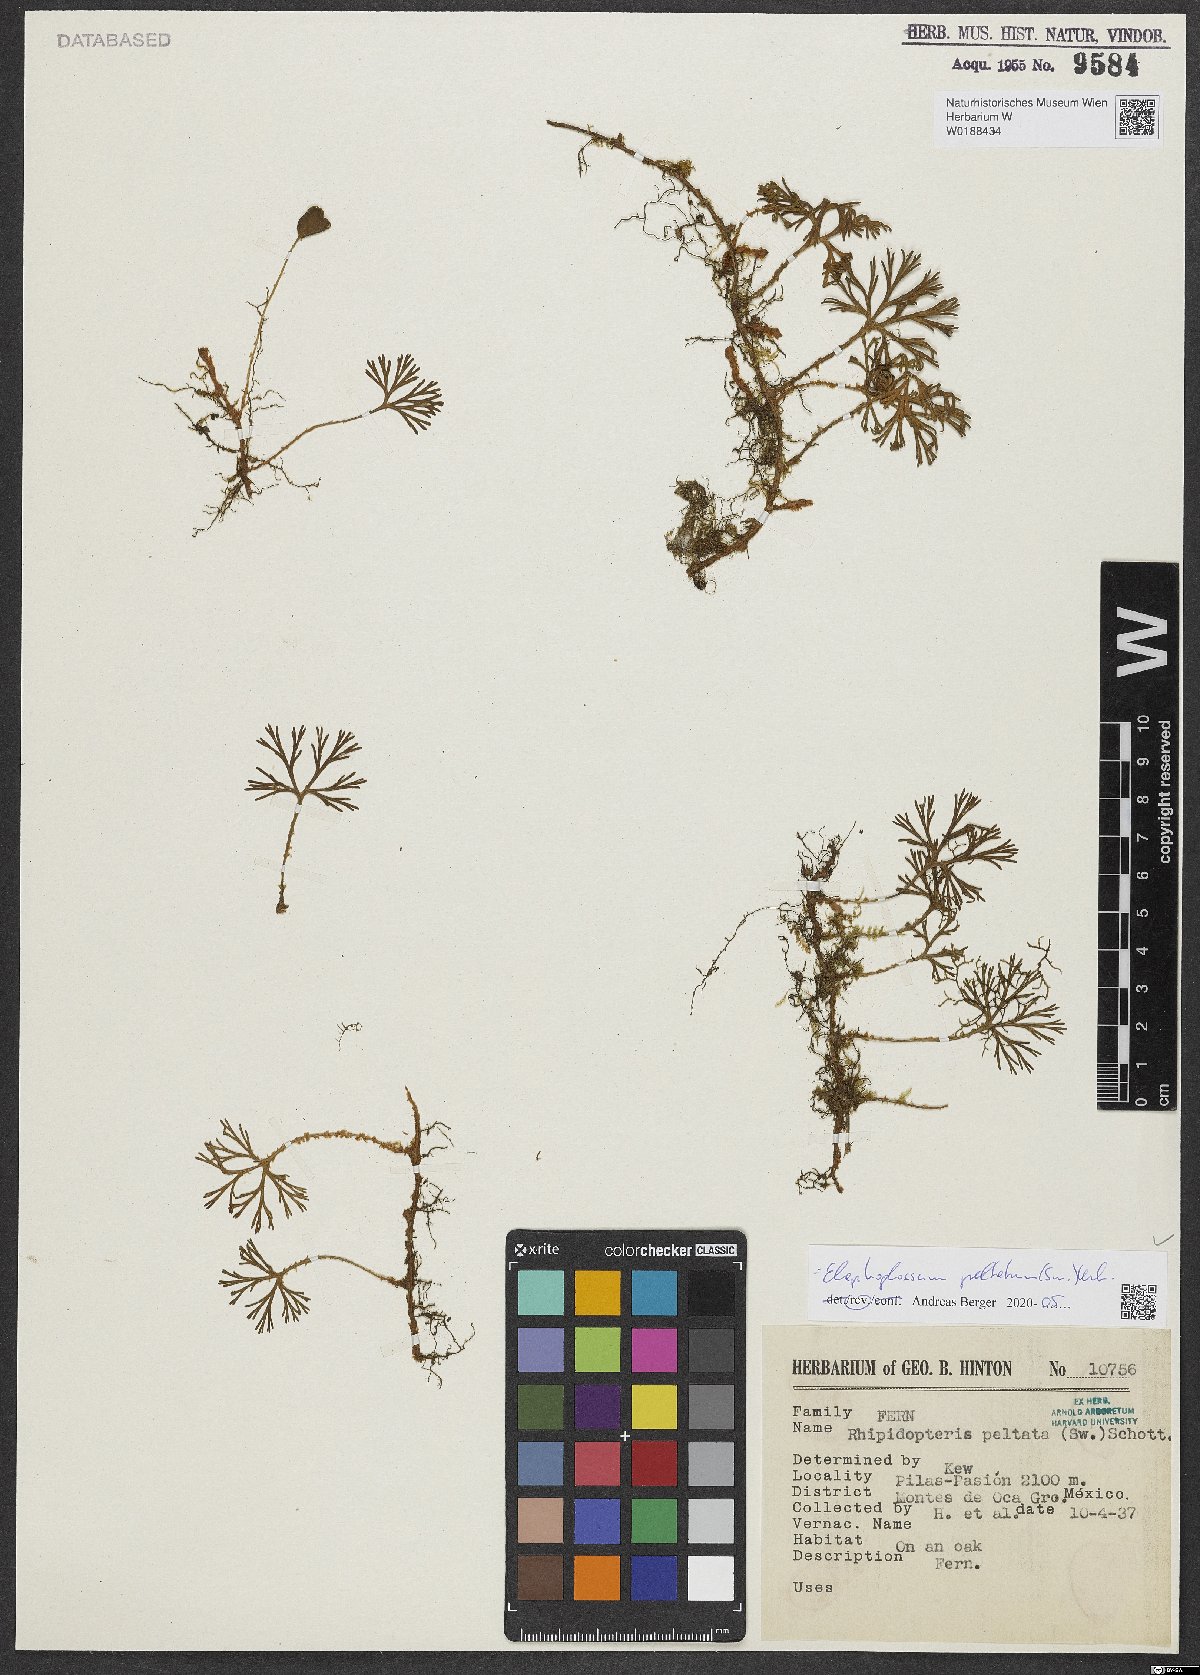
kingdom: Plantae
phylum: Tracheophyta
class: Polypodiopsida
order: Polypodiales
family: Dryopteridaceae
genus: Elaphoglossum
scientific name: Elaphoglossum peltatum
